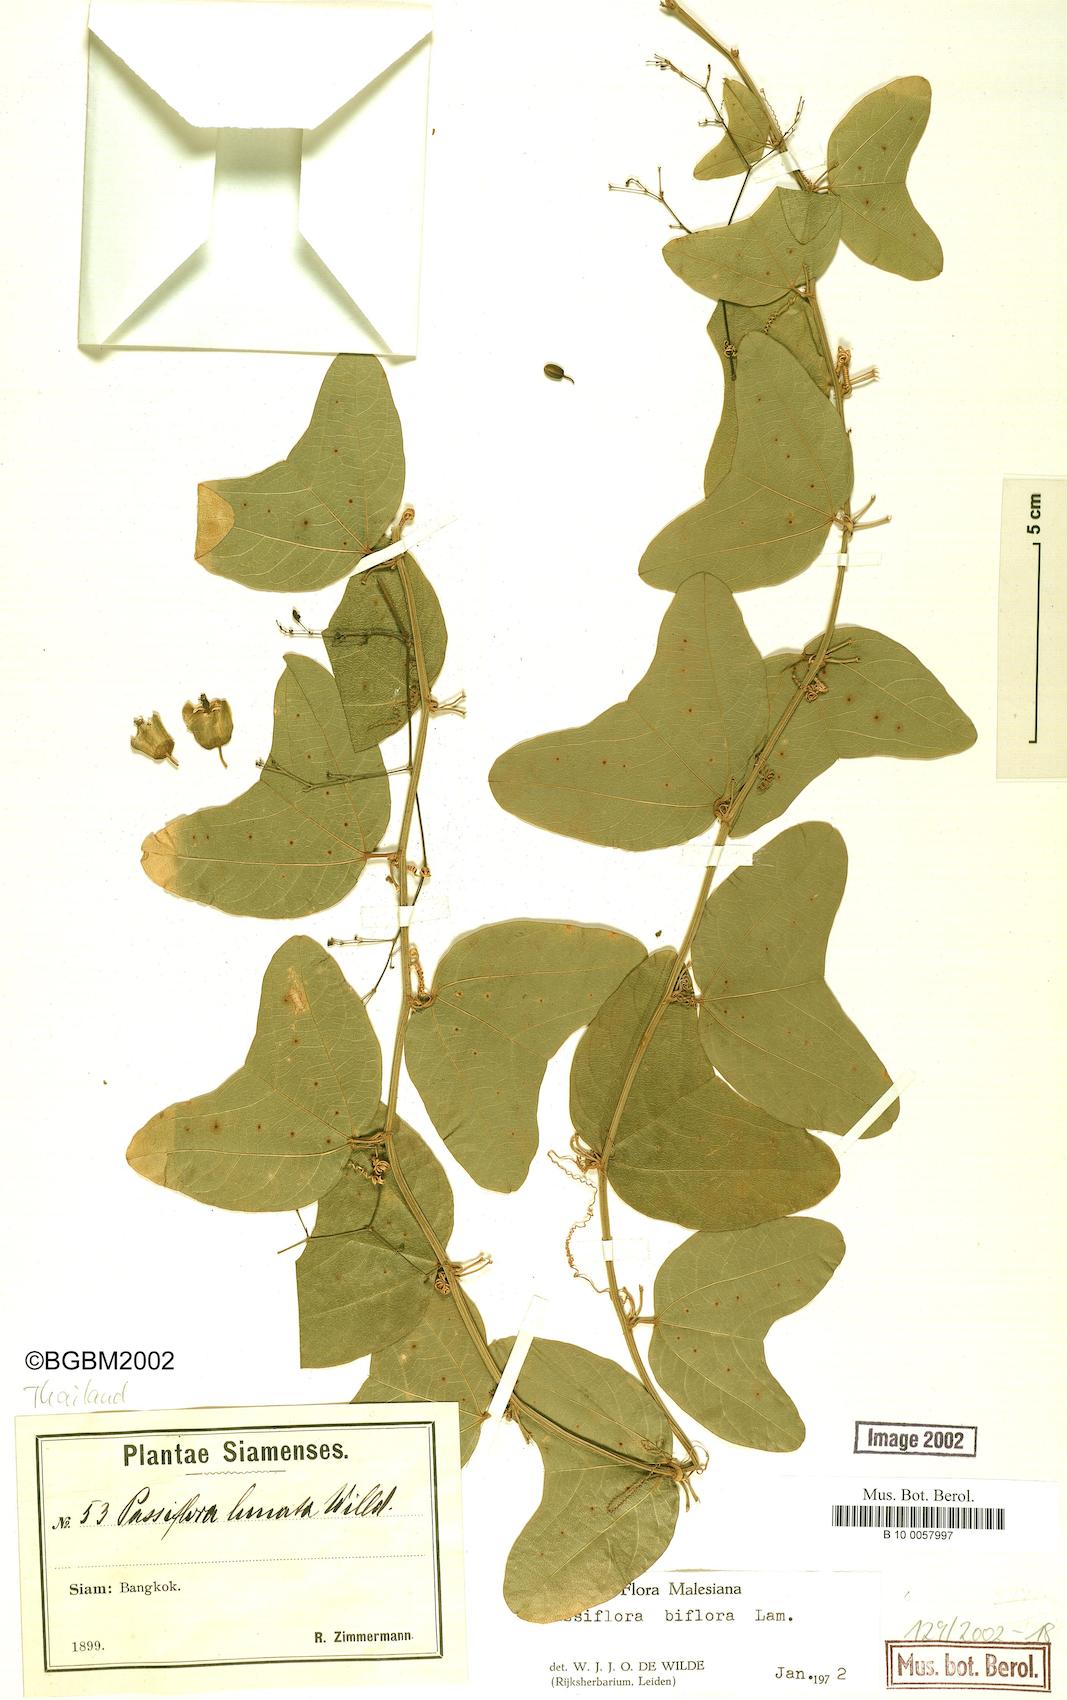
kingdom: Plantae
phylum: Tracheophyta
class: Magnoliopsida
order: Malpighiales
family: Passifloraceae
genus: Passiflora
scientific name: Passiflora biflora
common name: Twoflower passionflower
